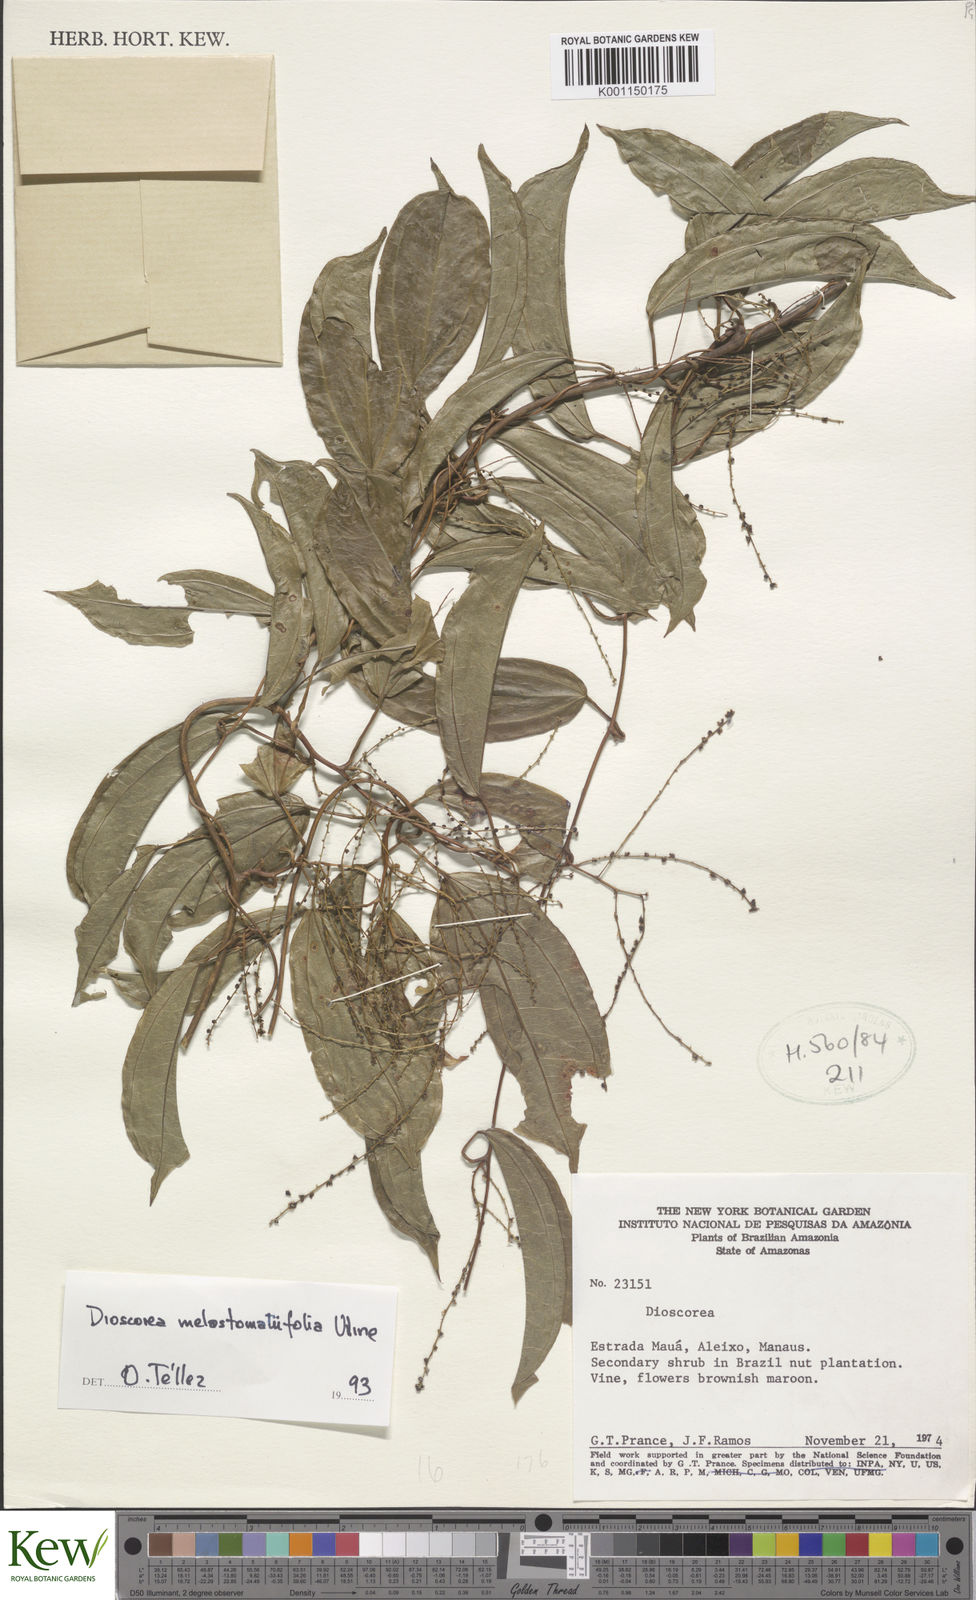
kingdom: Plantae
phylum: Tracheophyta
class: Liliopsida
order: Dioscoreales
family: Dioscoreaceae
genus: Dioscorea
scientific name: Dioscorea
